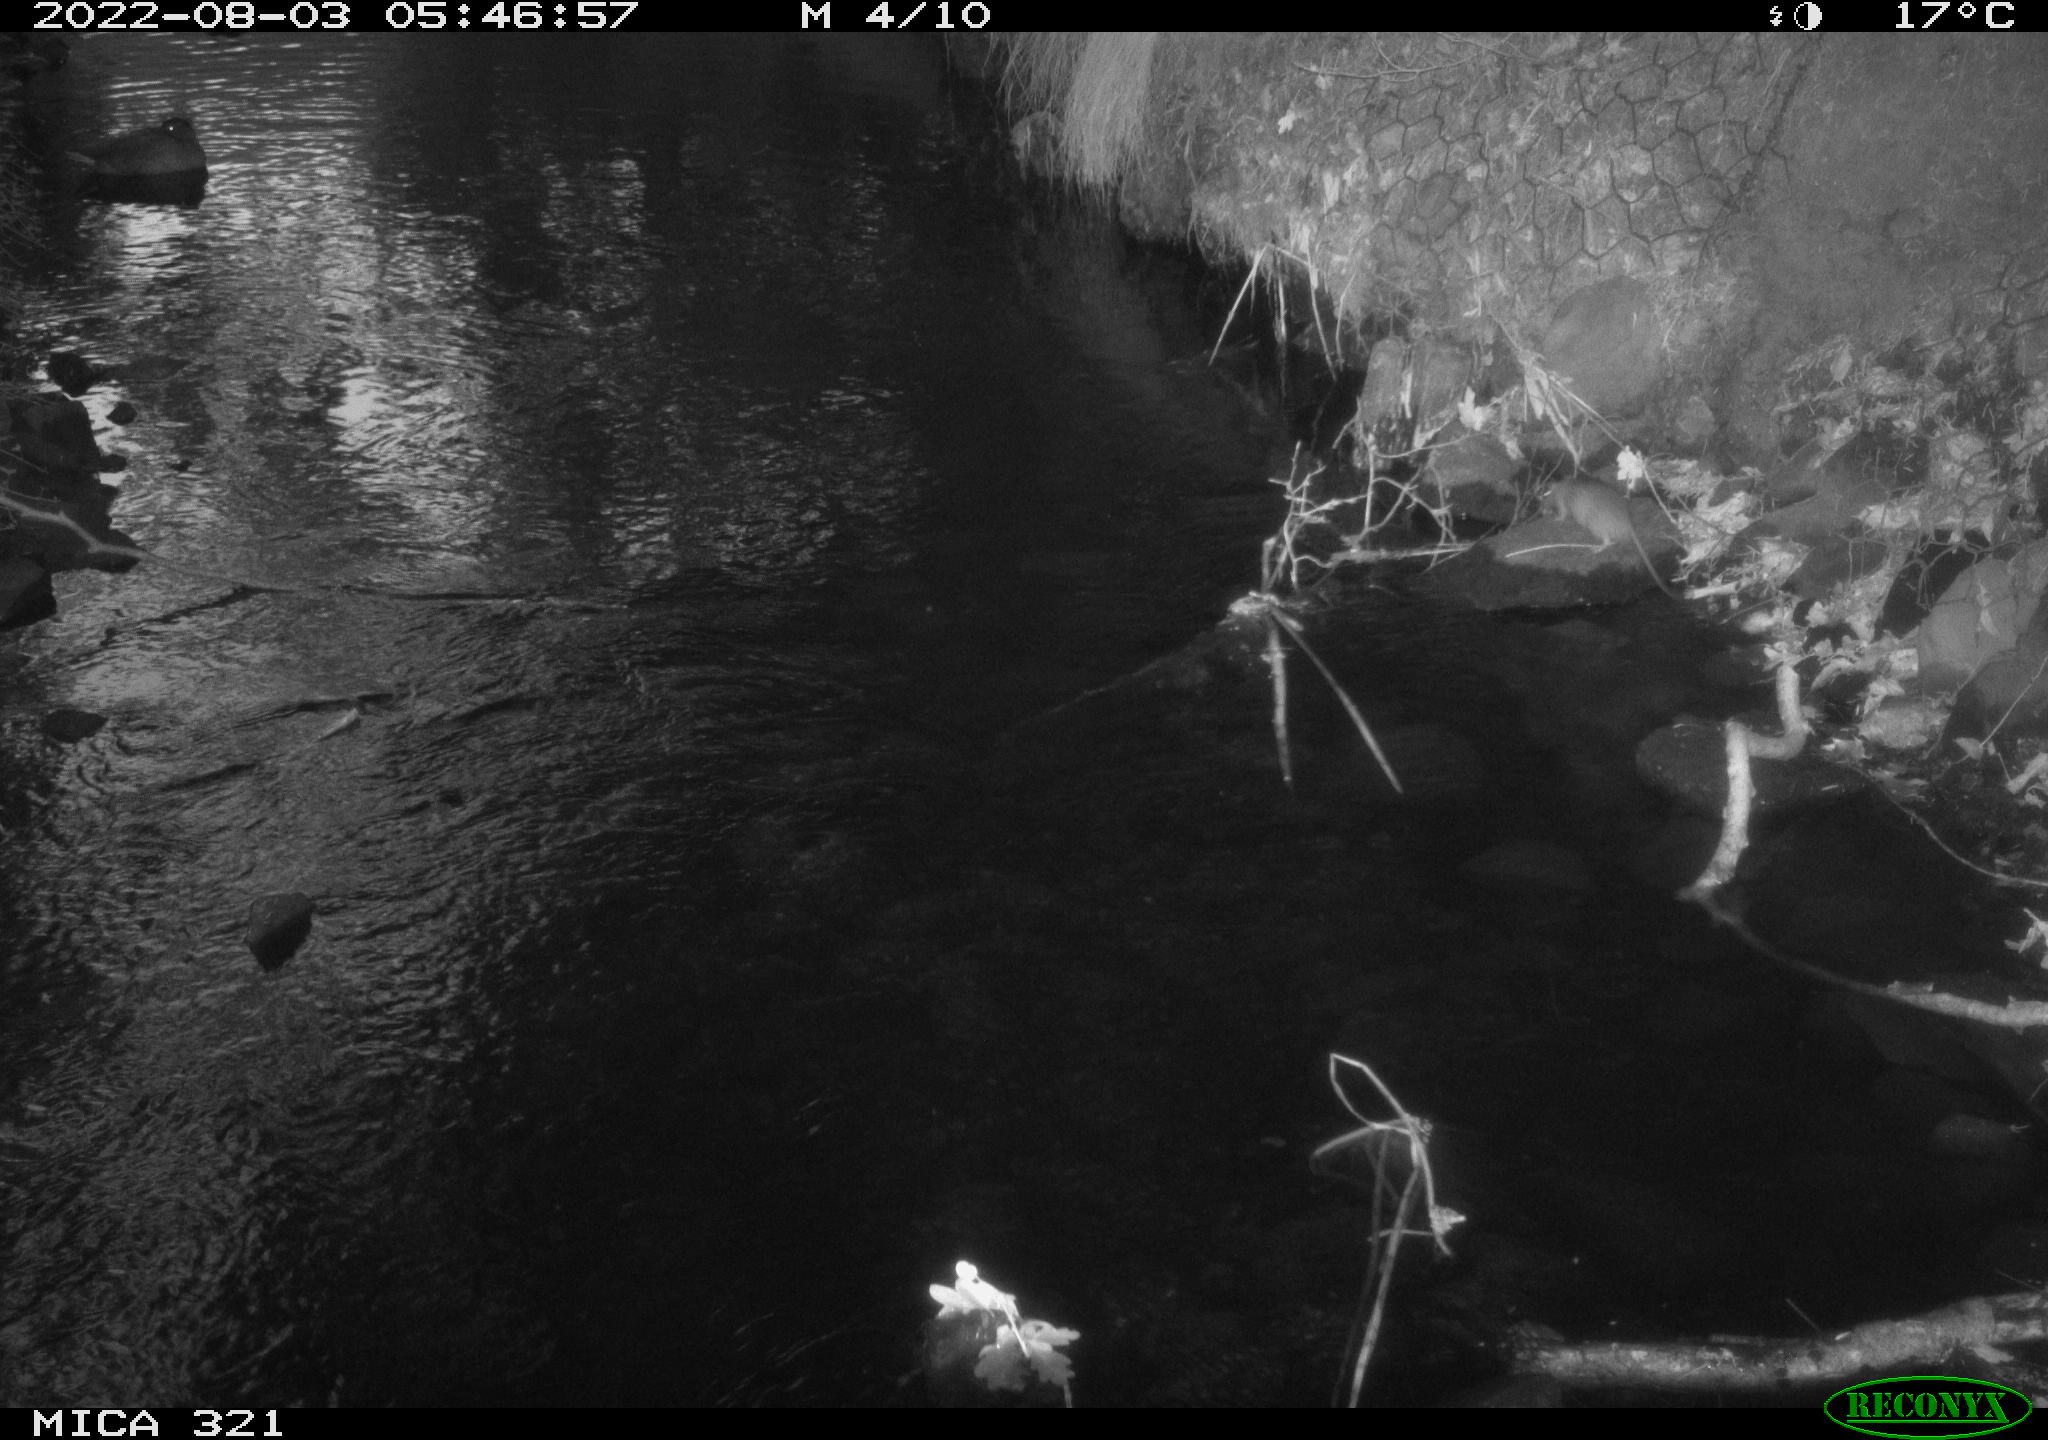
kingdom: Animalia
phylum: Chordata
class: Aves
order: Anseriformes
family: Anatidae
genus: Anas
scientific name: Anas platyrhynchos
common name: Mallard
